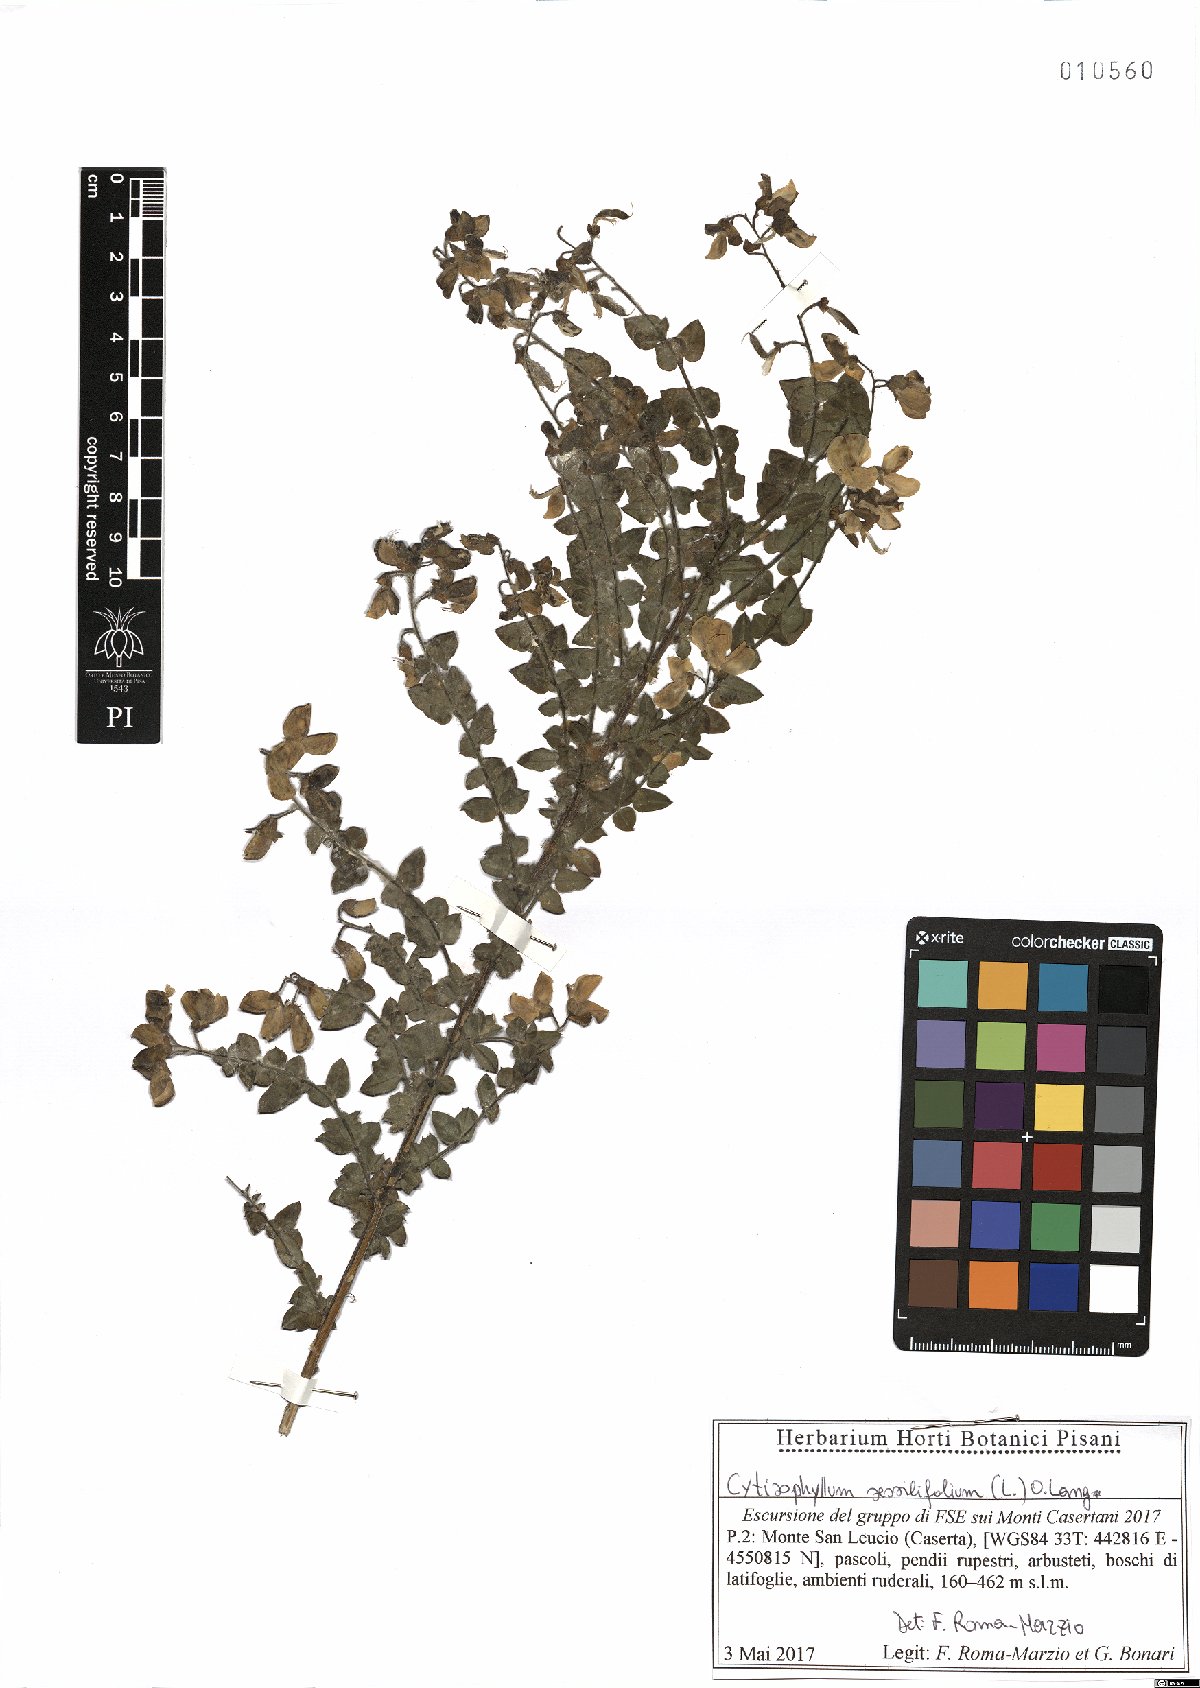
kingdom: Plantae
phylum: Tracheophyta
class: Magnoliopsida
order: Fabales
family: Fabaceae
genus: Cytisophyllum
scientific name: Cytisophyllum sessilifolium
